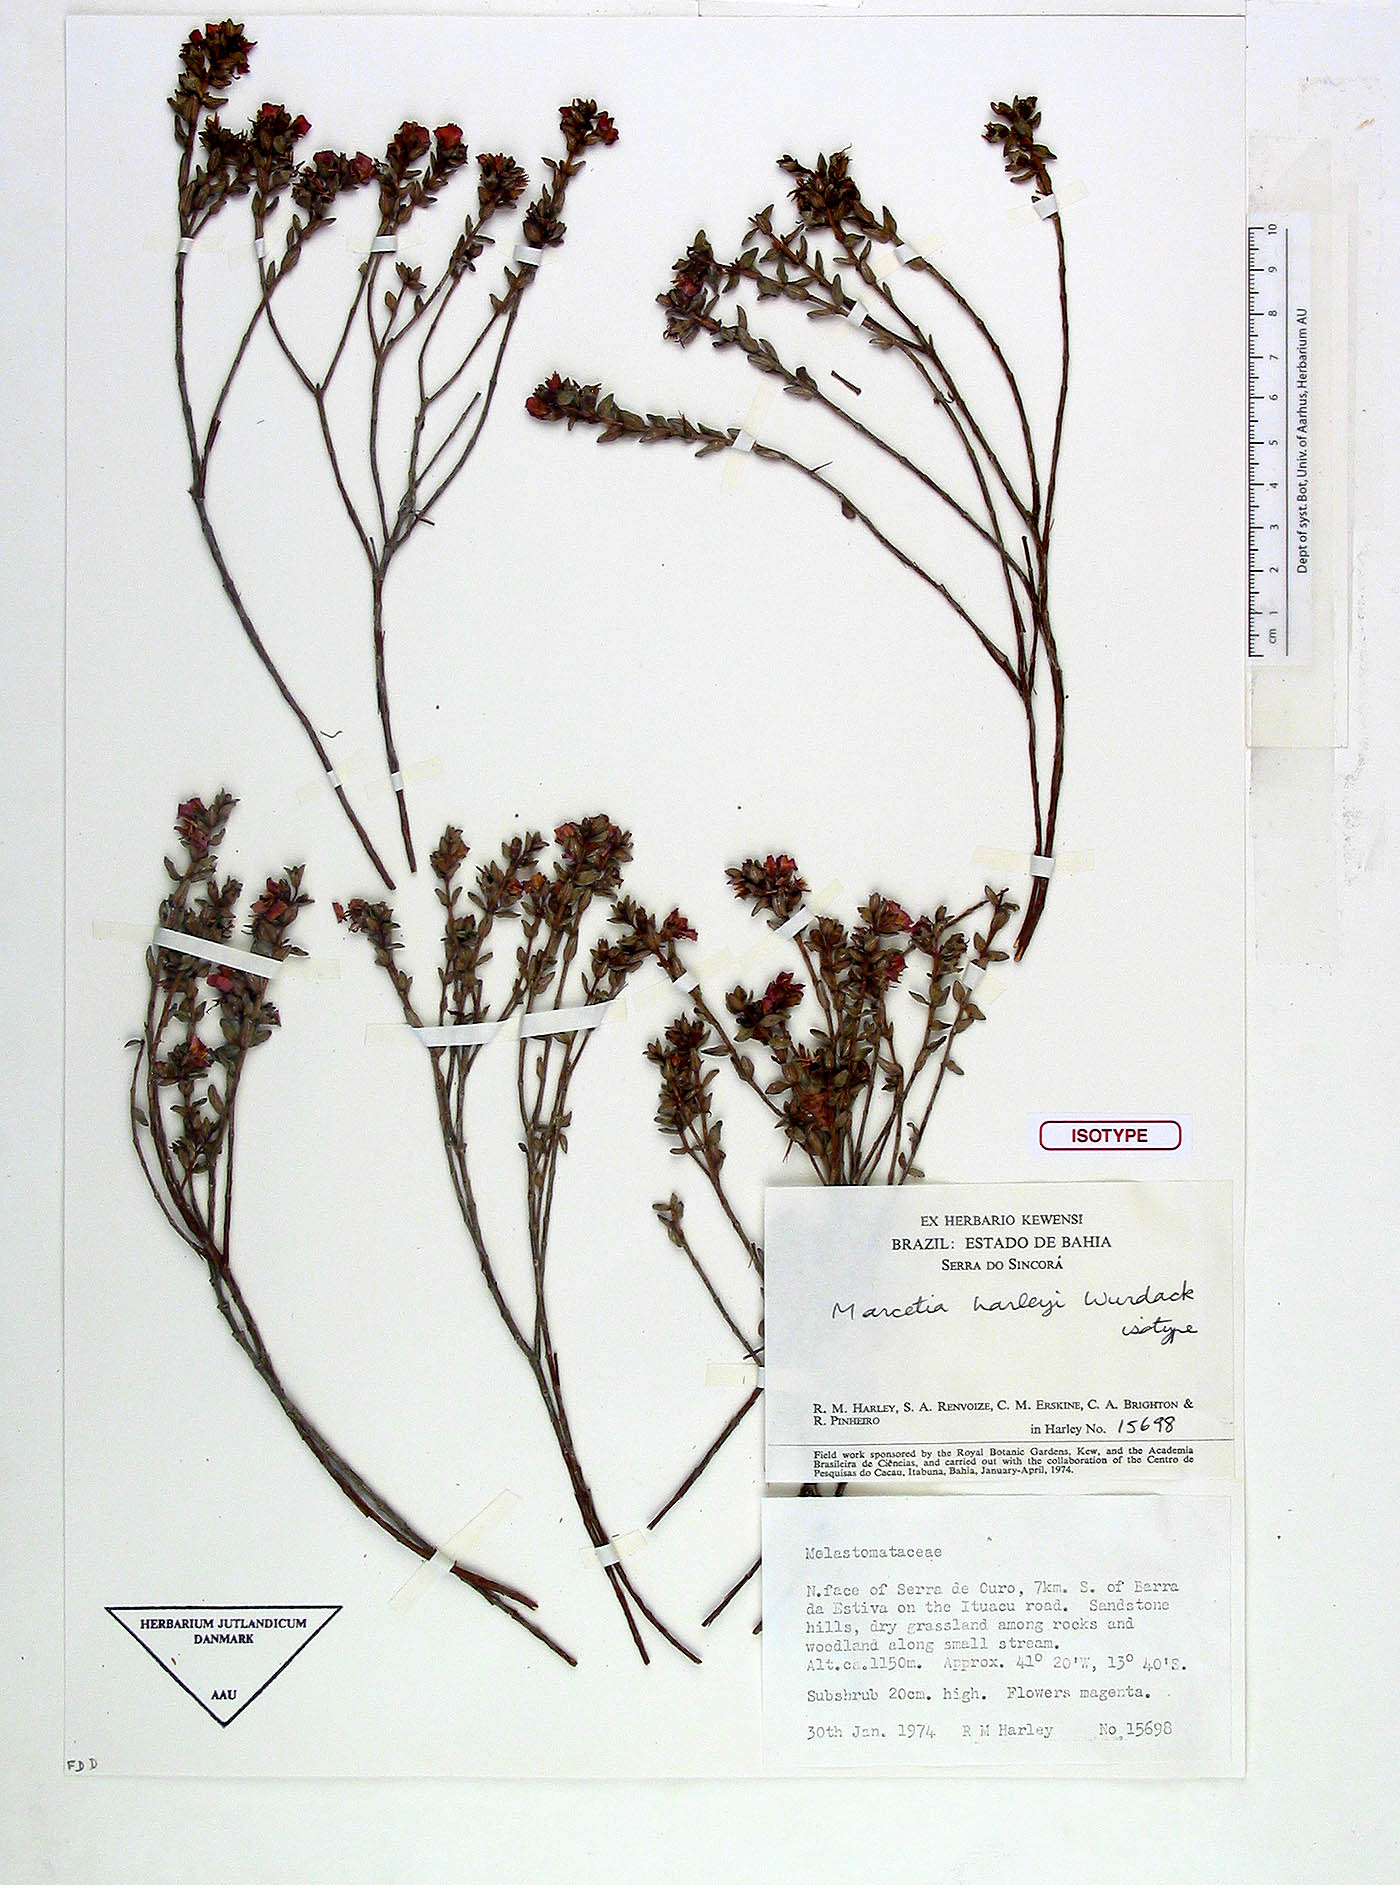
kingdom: Plantae
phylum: Tracheophyta
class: Magnoliopsida
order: Myrtales
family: Melastomataceae
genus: Marcetia
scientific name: Marcetia harleyi
